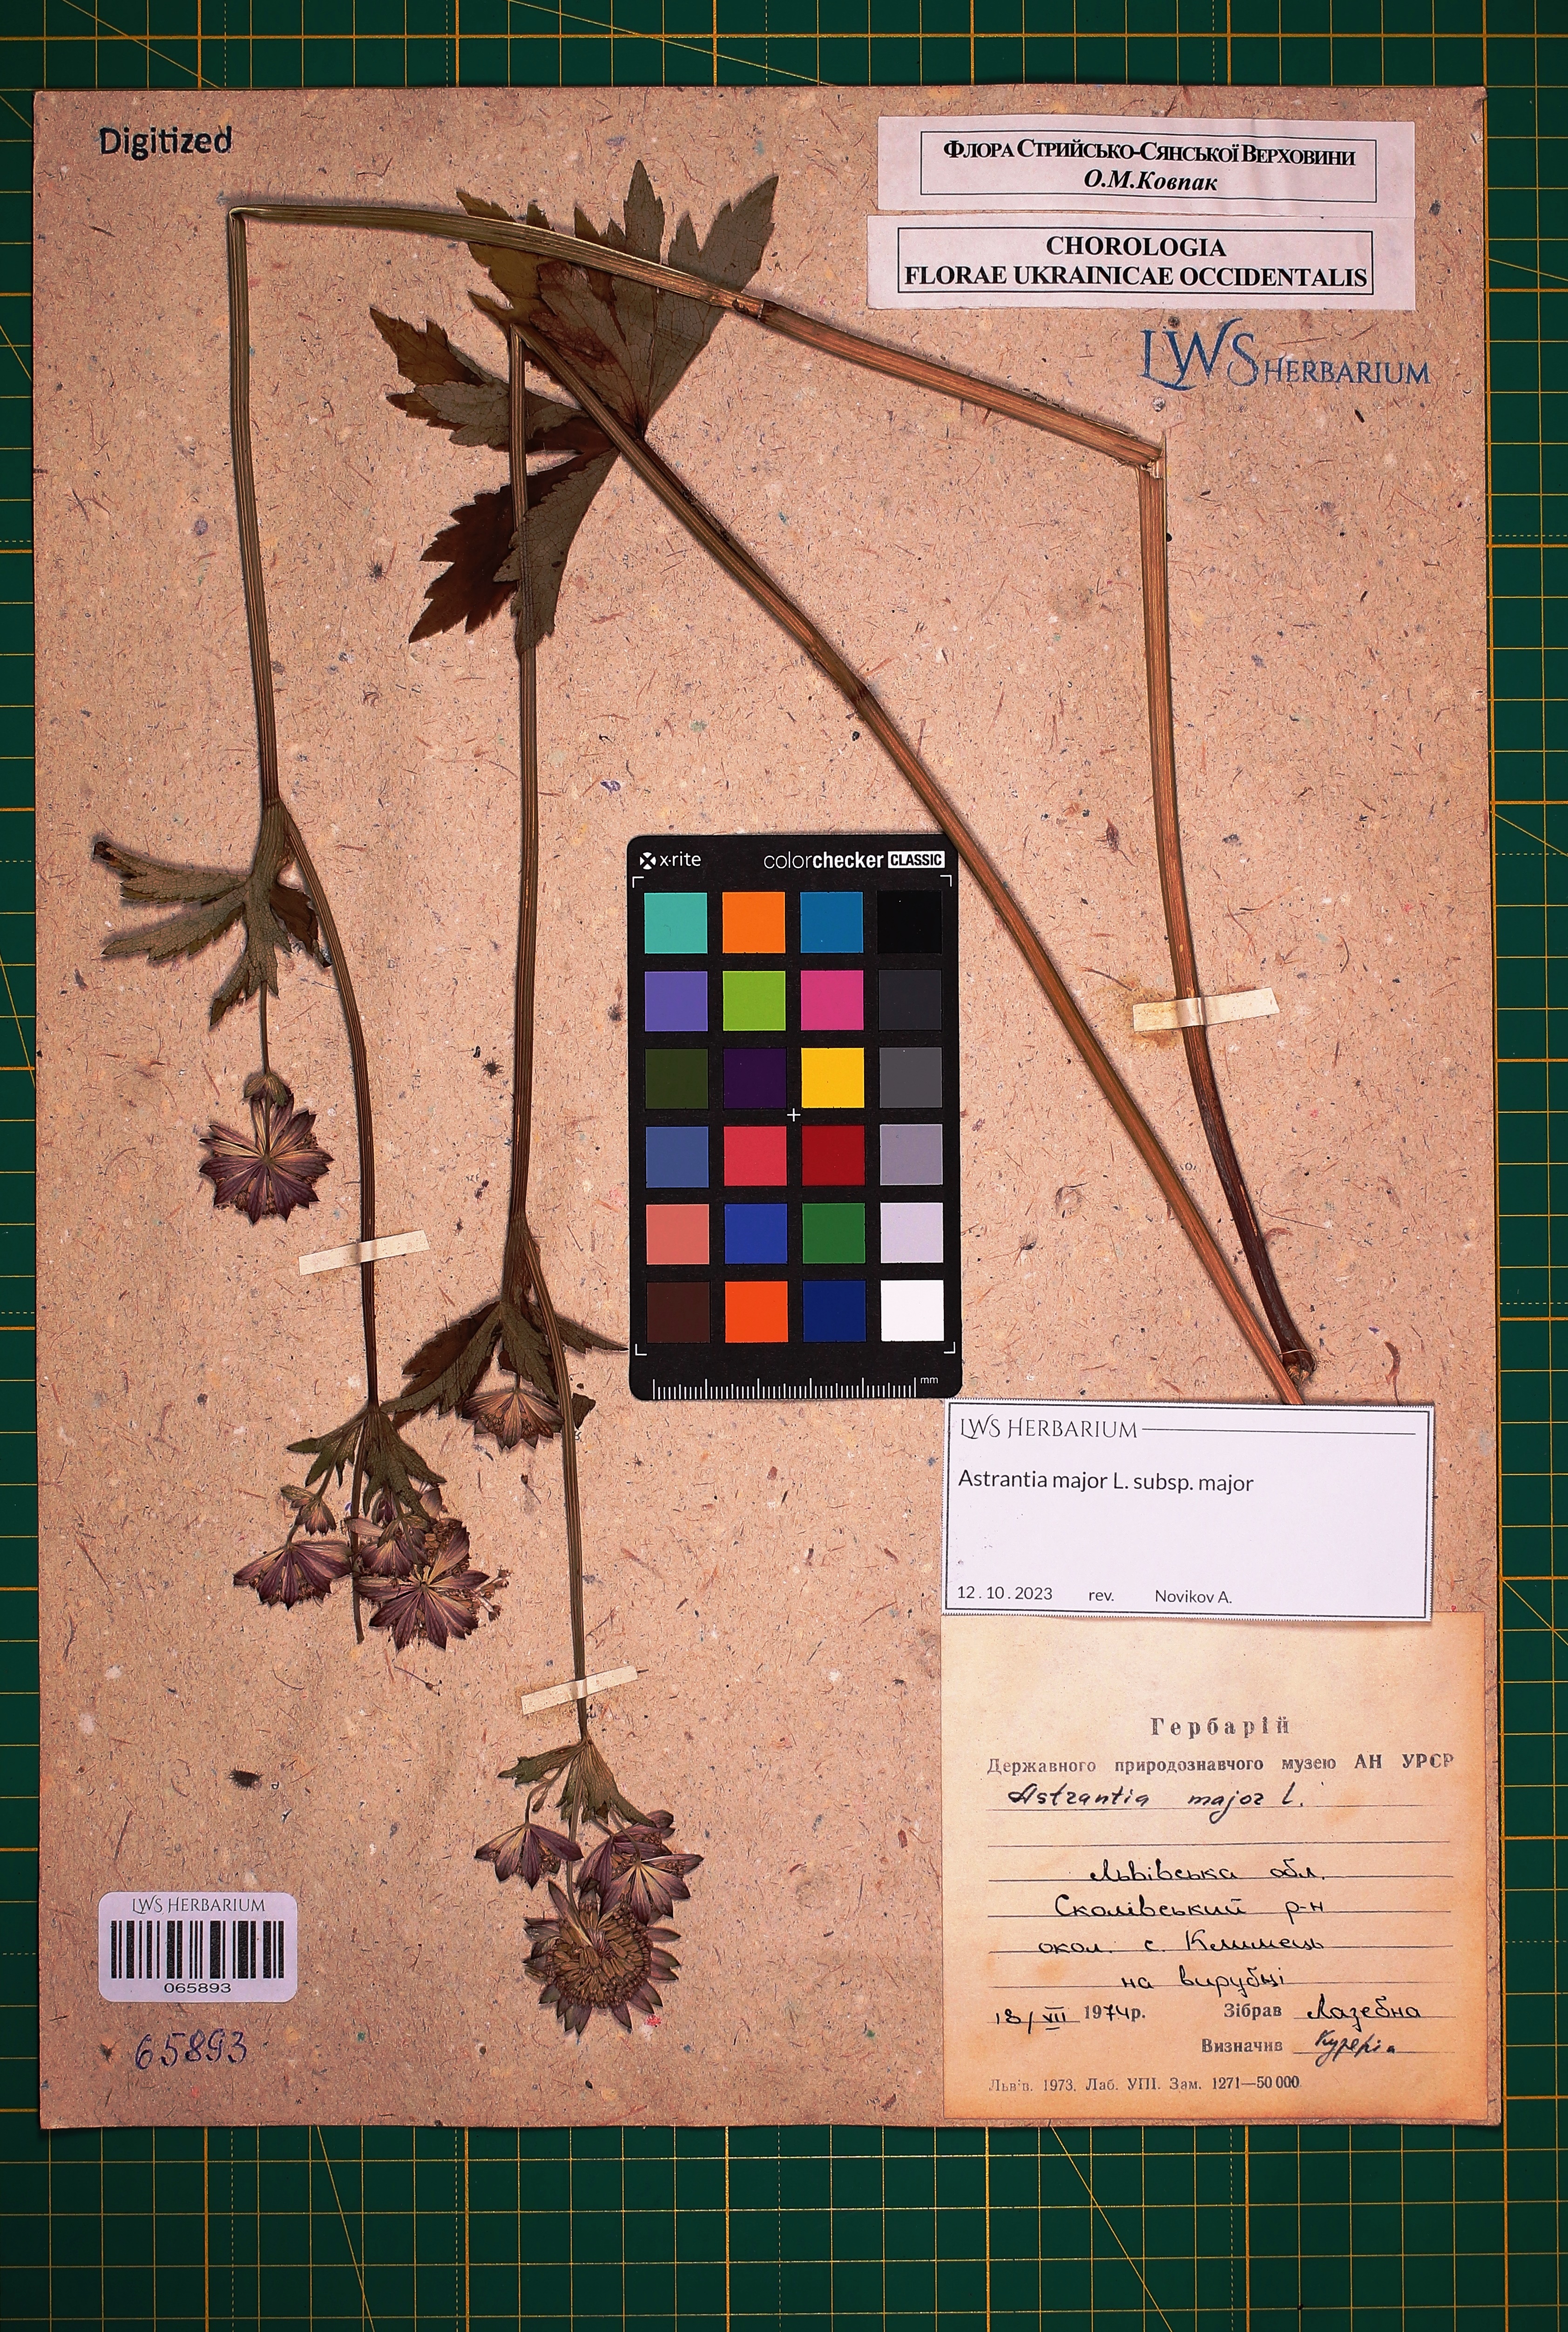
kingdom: Plantae
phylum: Tracheophyta
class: Magnoliopsida
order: Apiales
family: Apiaceae
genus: Astrantia
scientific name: Astrantia major
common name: Greater masterwort
